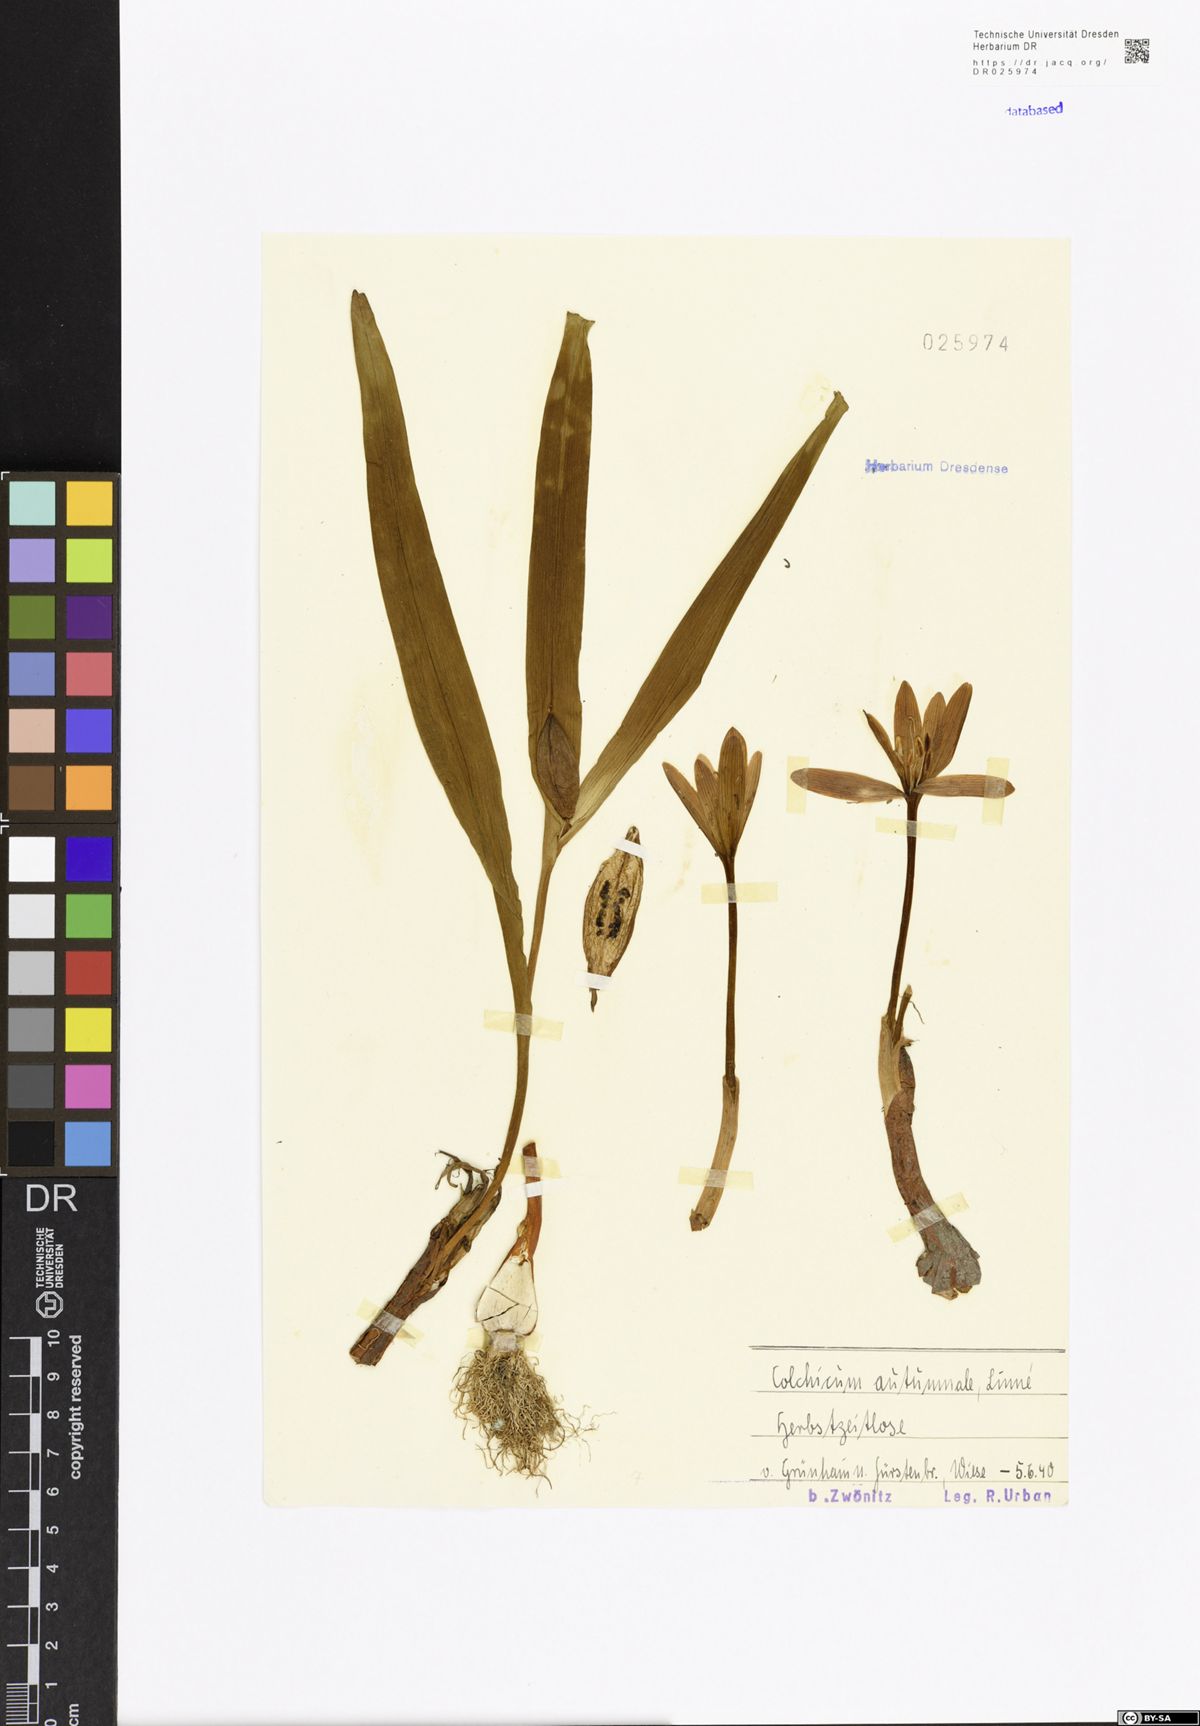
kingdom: Plantae
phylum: Tracheophyta
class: Liliopsida
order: Liliales
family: Colchicaceae
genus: Colchicum
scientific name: Colchicum autumnale
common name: Autumn crocus
